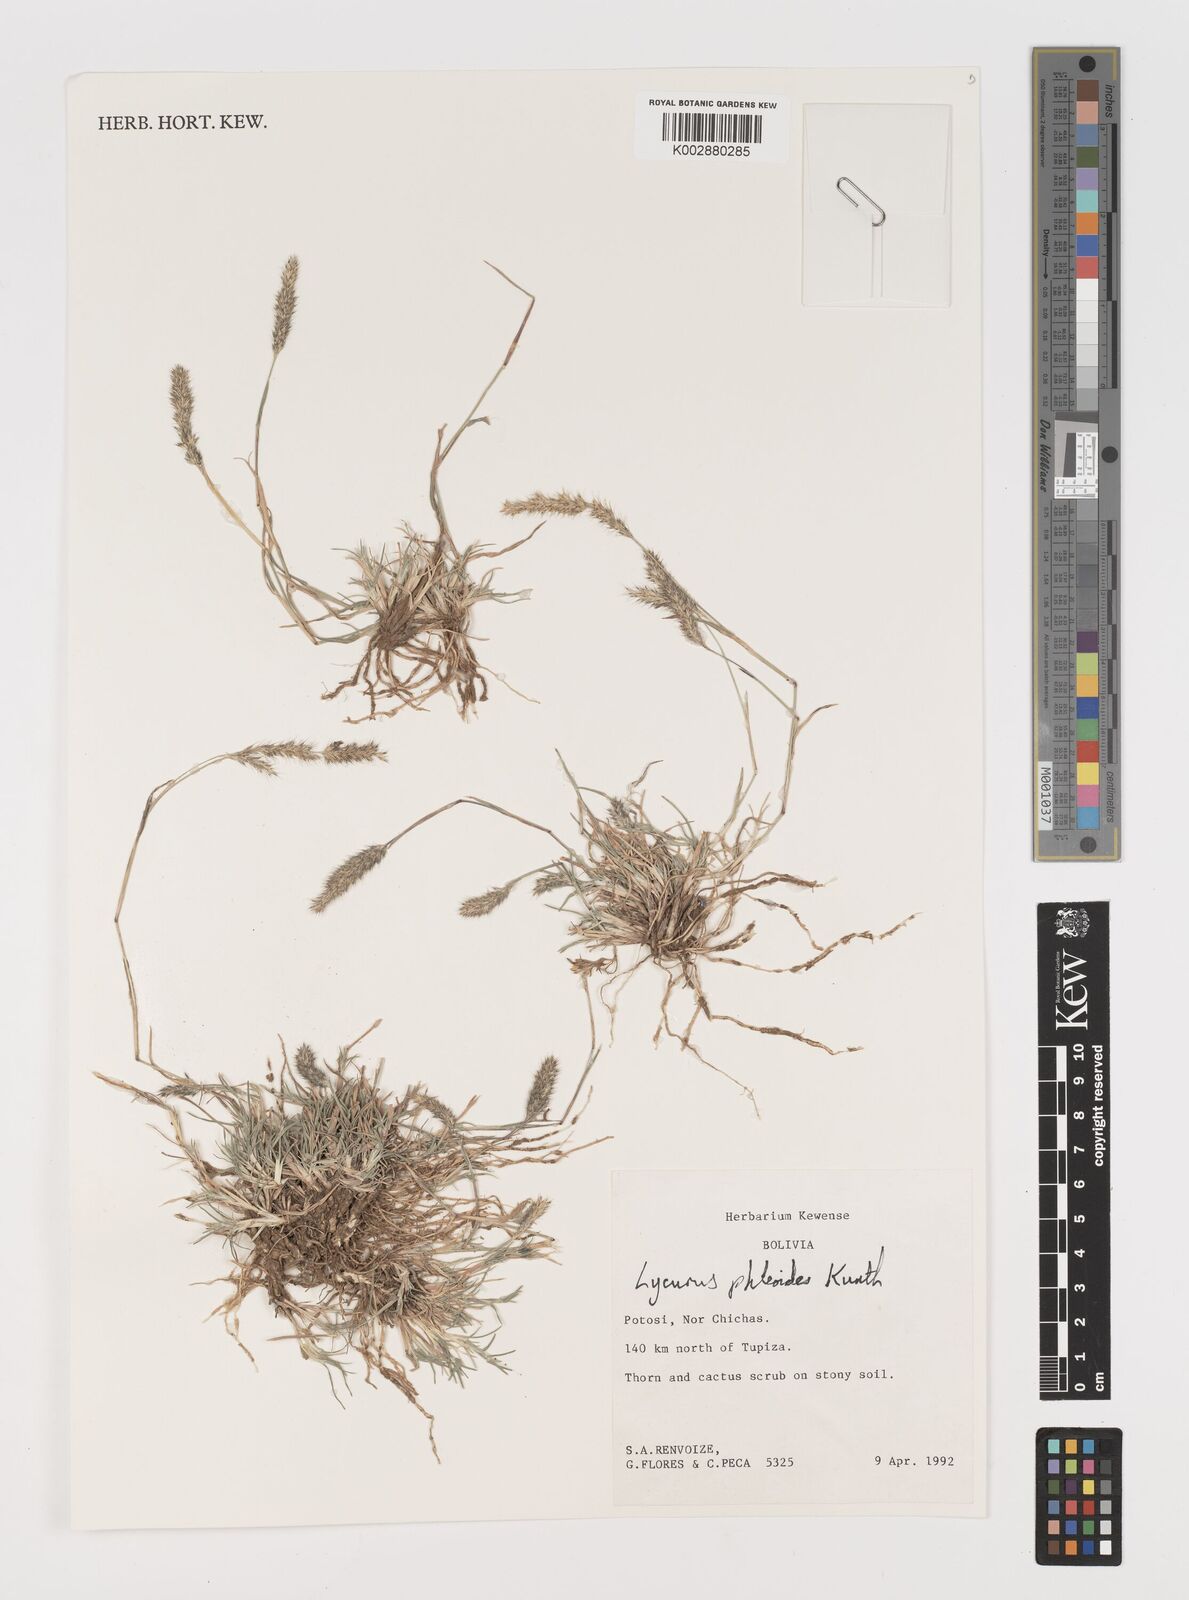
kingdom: Plantae
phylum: Tracheophyta
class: Liliopsida
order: Poales
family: Poaceae
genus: Muhlenbergia
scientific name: Muhlenbergia phleoides
